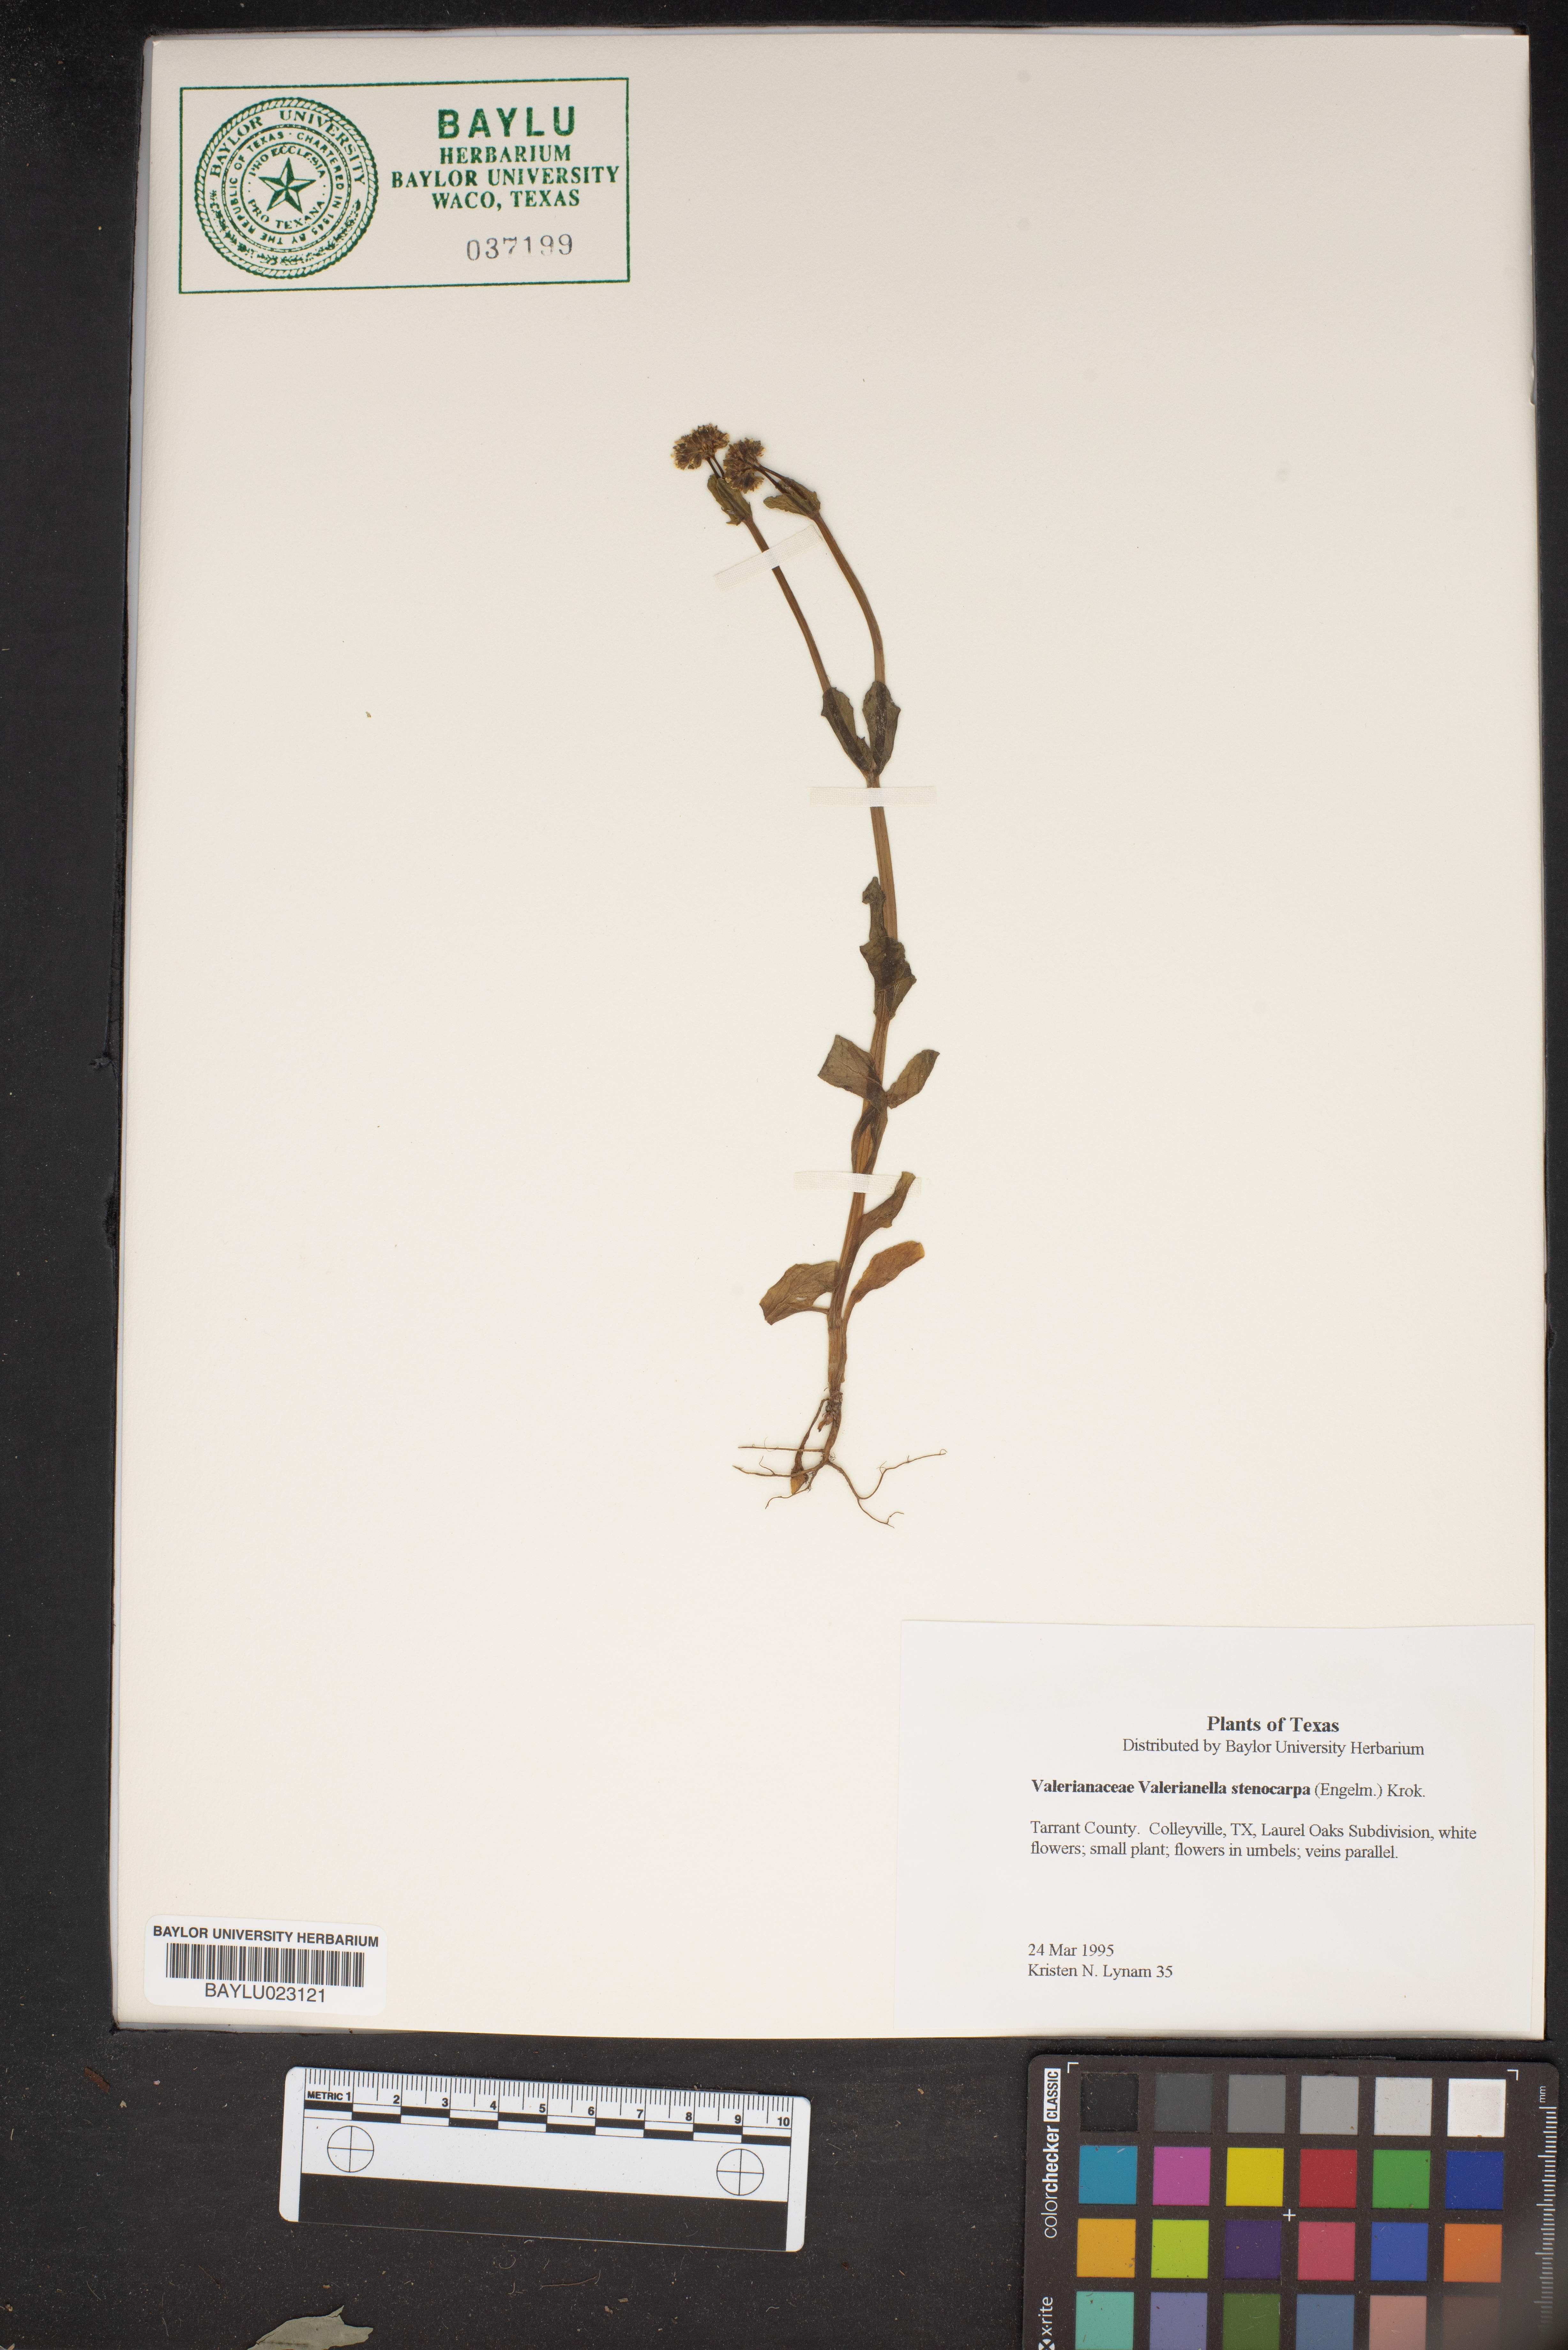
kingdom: Plantae
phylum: Tracheophyta
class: Magnoliopsida
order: Dipsacales
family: Caprifoliaceae
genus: Valerianella
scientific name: Valerianella stenocarpa
